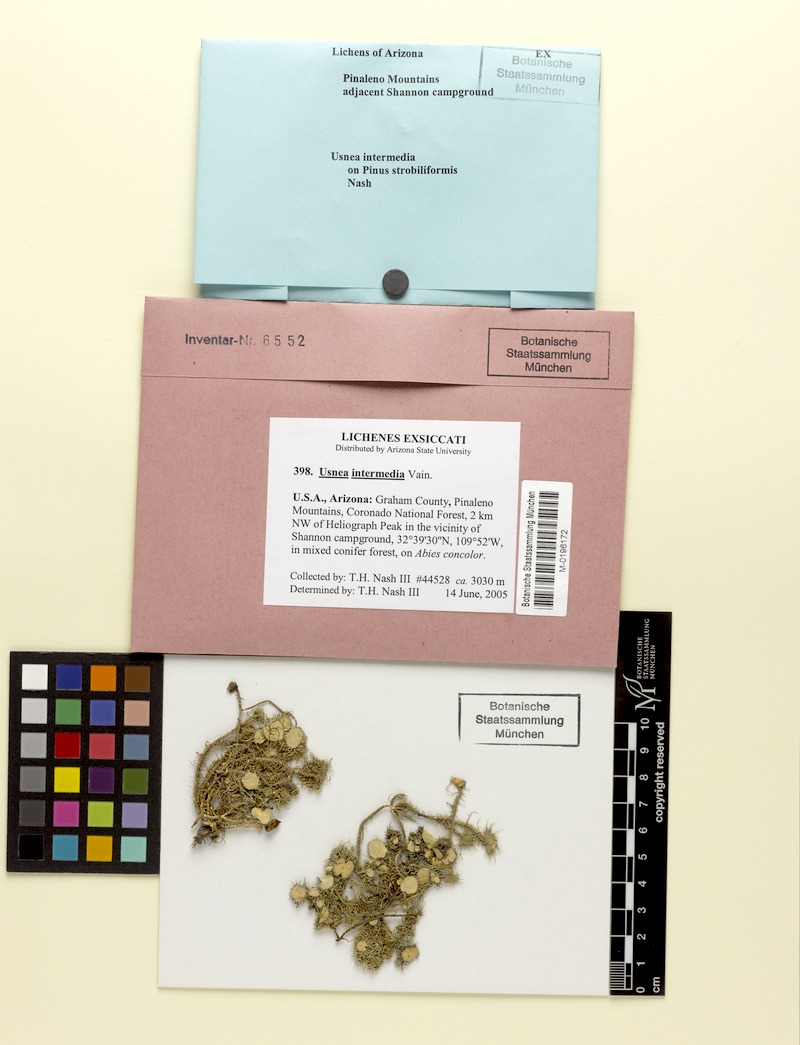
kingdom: Fungi
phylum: Ascomycota
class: Lecanoromycetes
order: Lecanorales
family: Parmeliaceae
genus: Usnea
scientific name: Usnea intermedia
